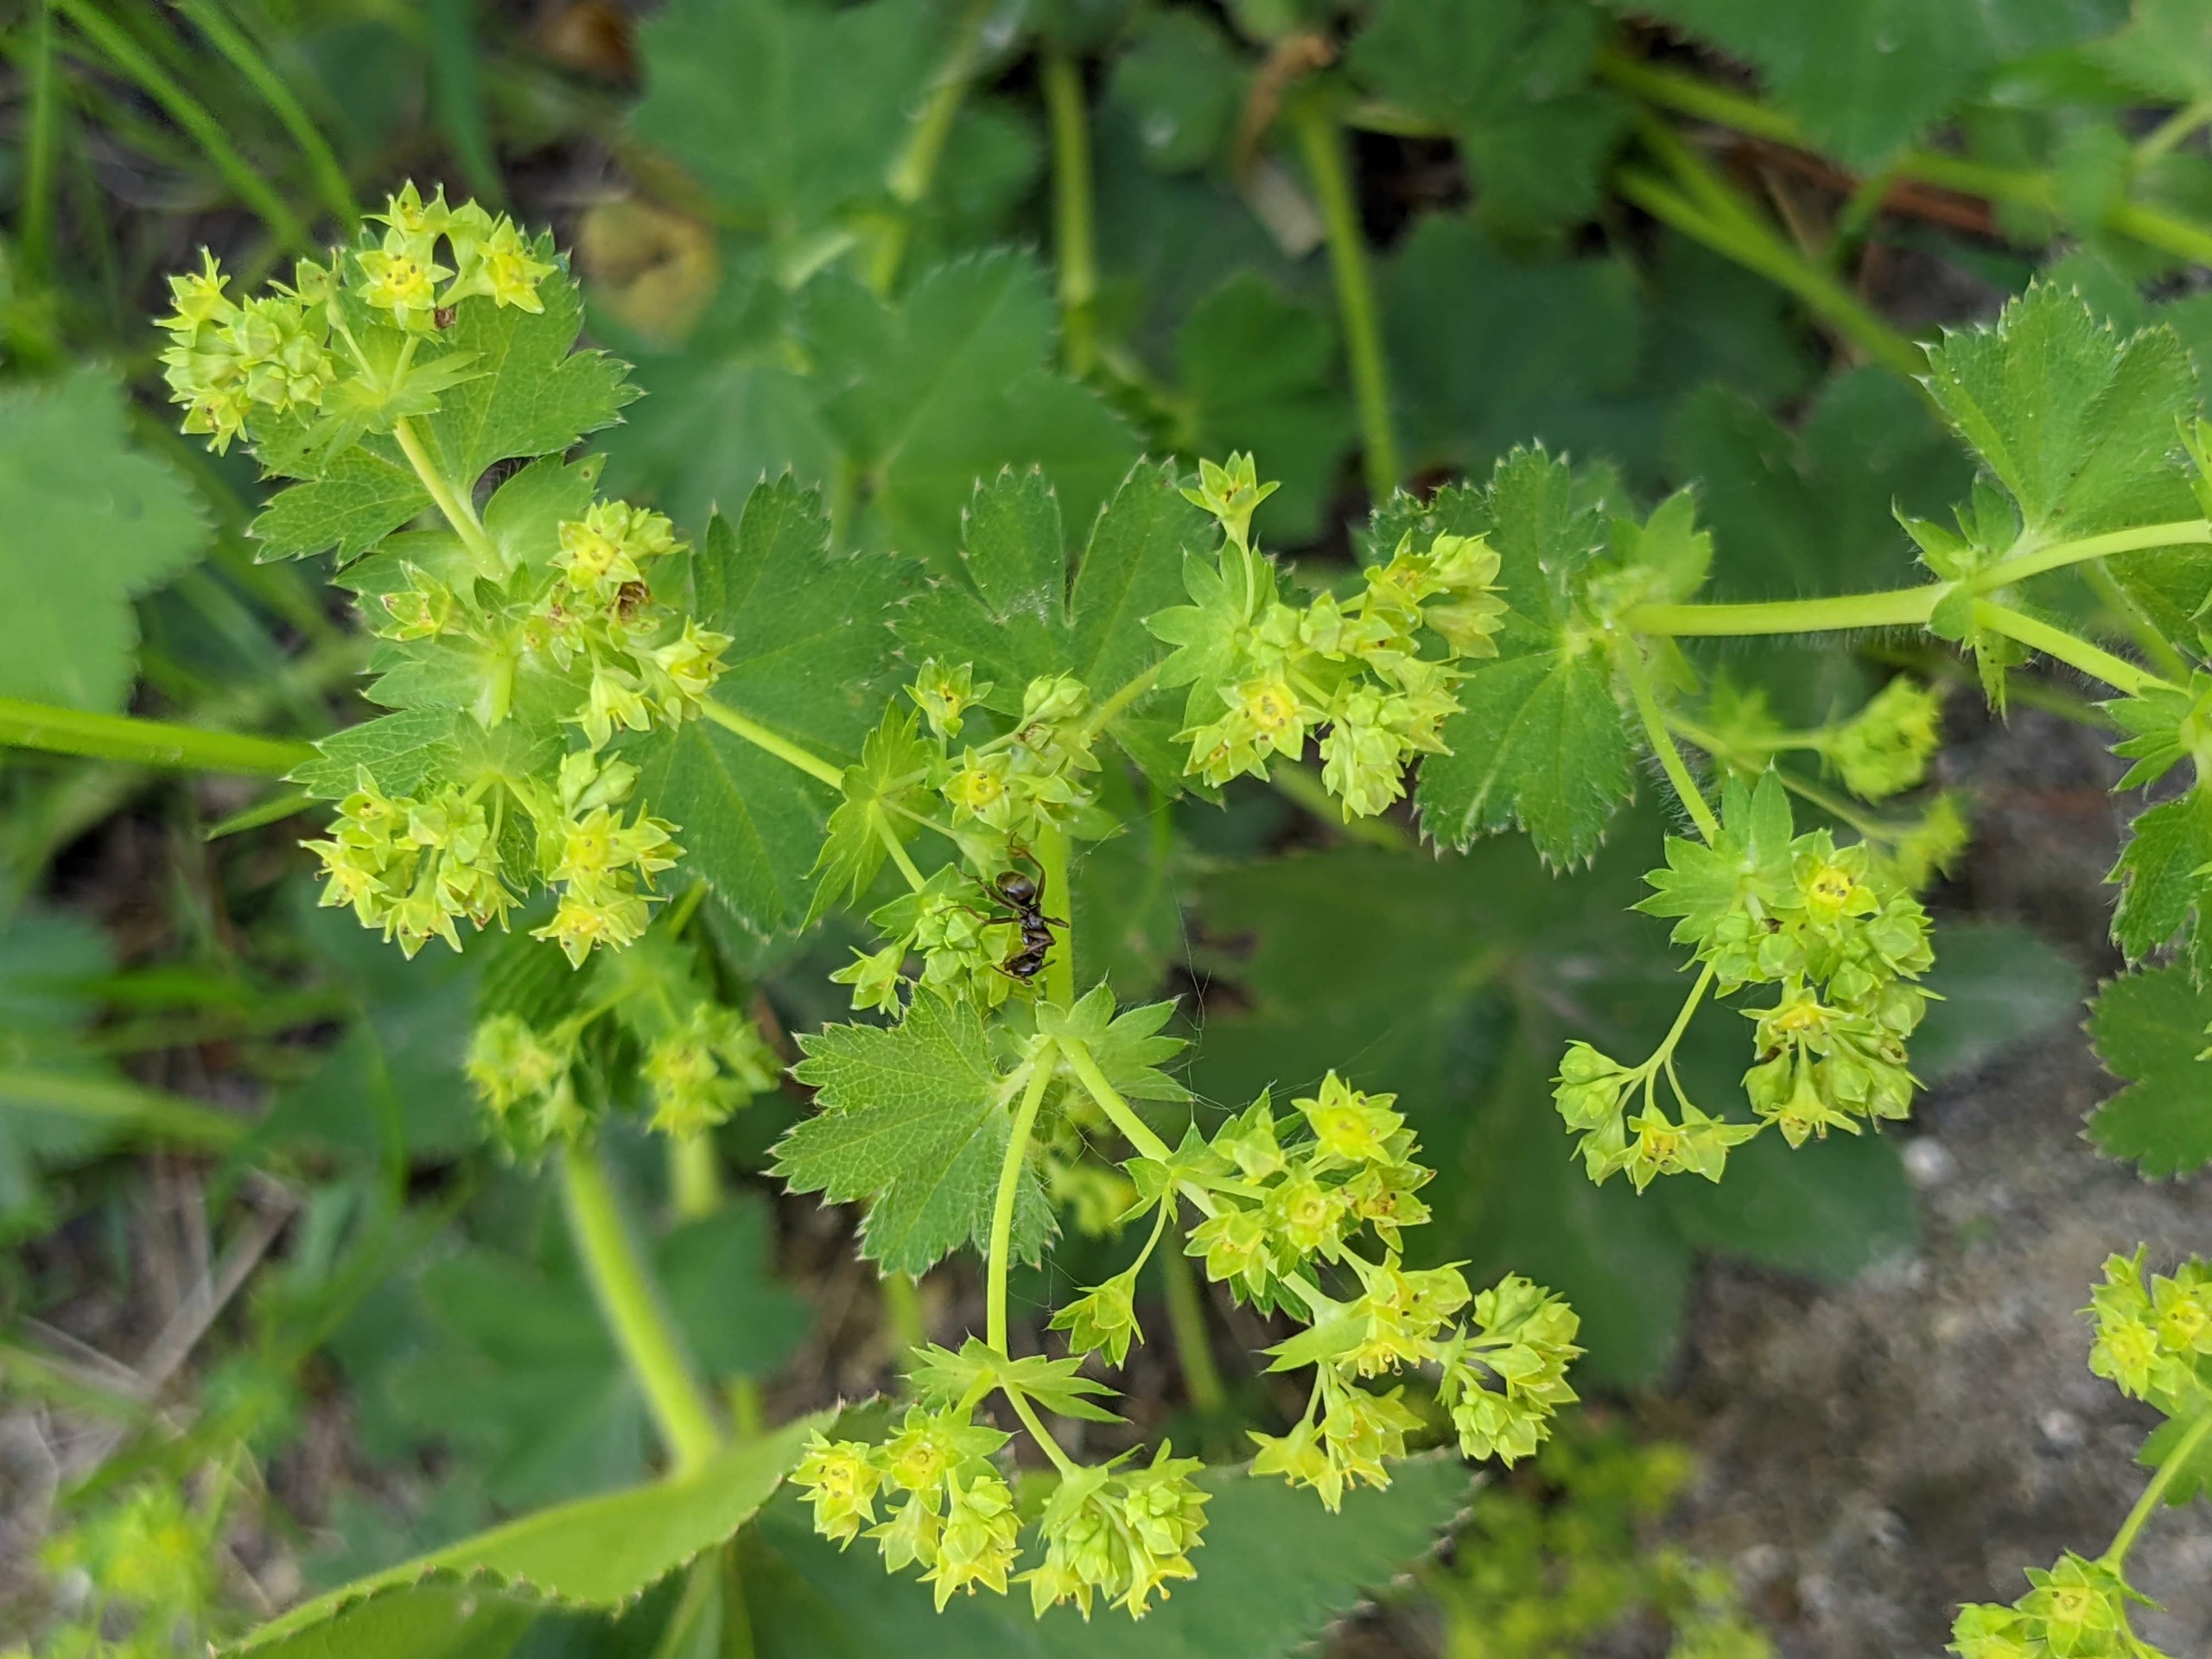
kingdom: Plantae
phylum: Tracheophyta
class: Magnoliopsida
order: Rosales
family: Rosaceae
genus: Alchemilla
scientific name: Alchemilla vulgaris
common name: Spidslappet løvefod
